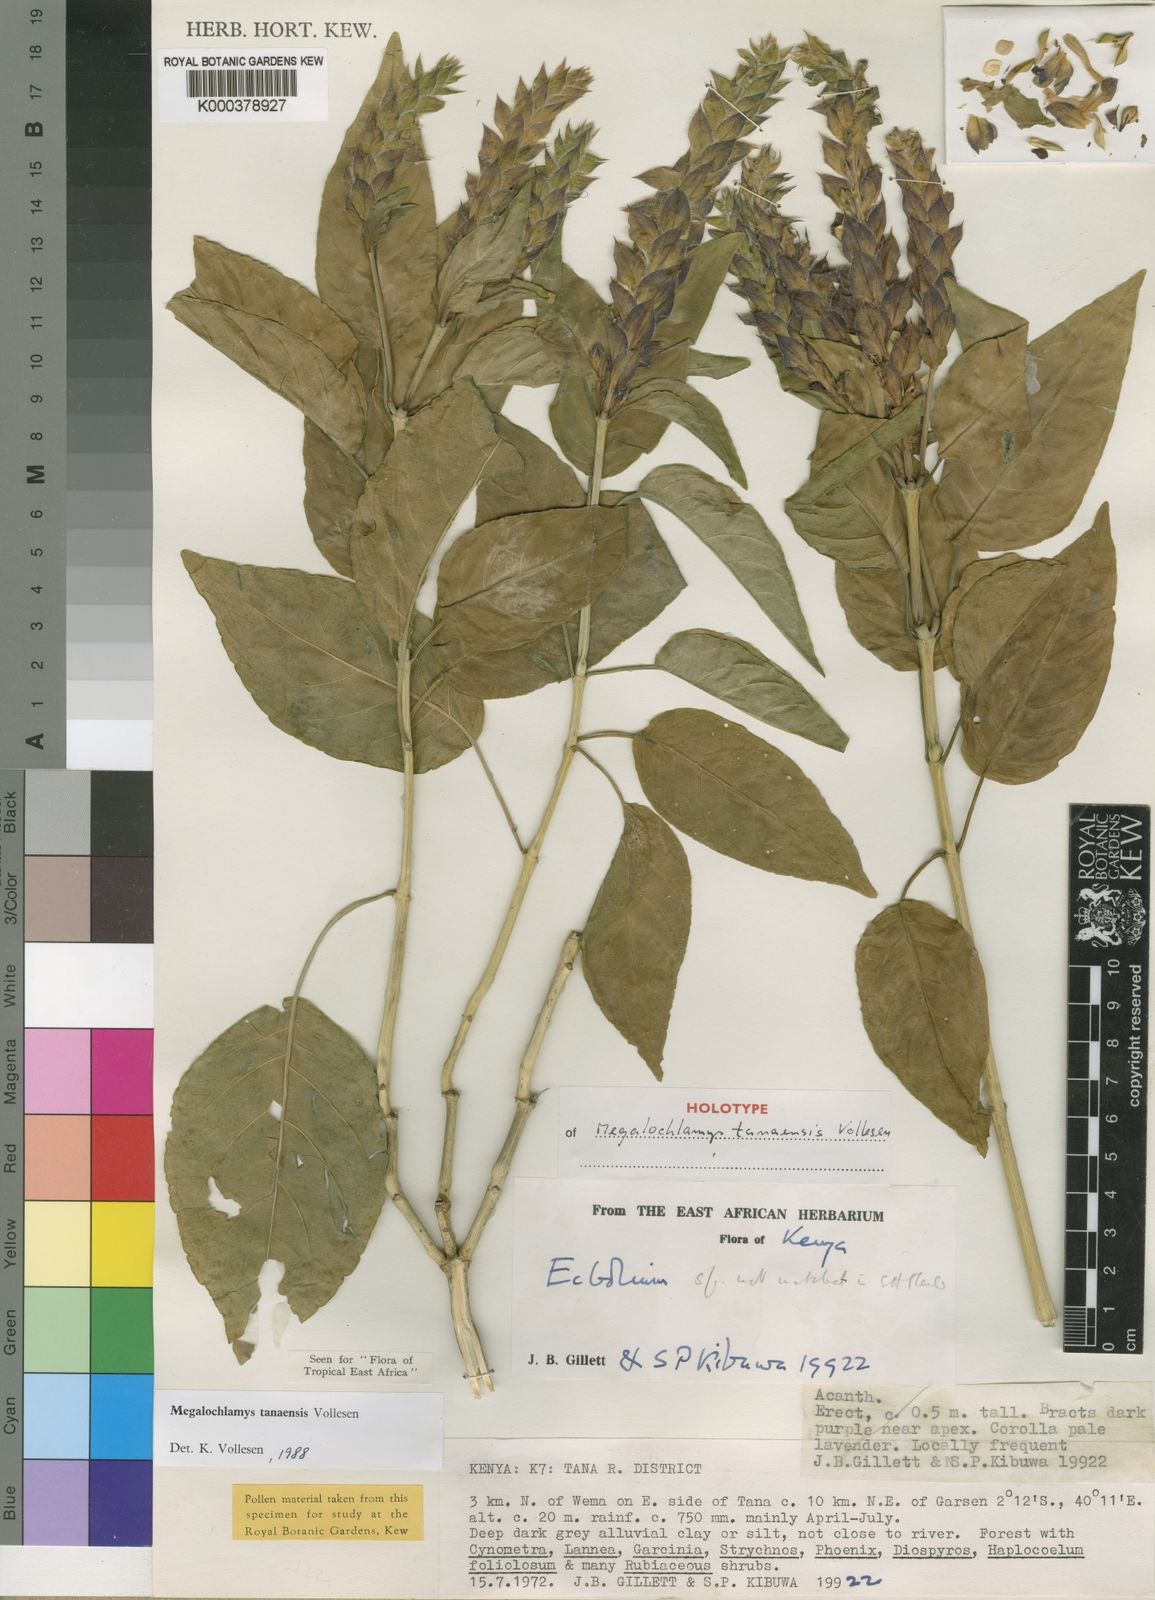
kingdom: Plantae
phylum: Tracheophyta
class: Magnoliopsida
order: Lamiales
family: Acanthaceae
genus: Megalochlamys
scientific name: Megalochlamys tanaensis
